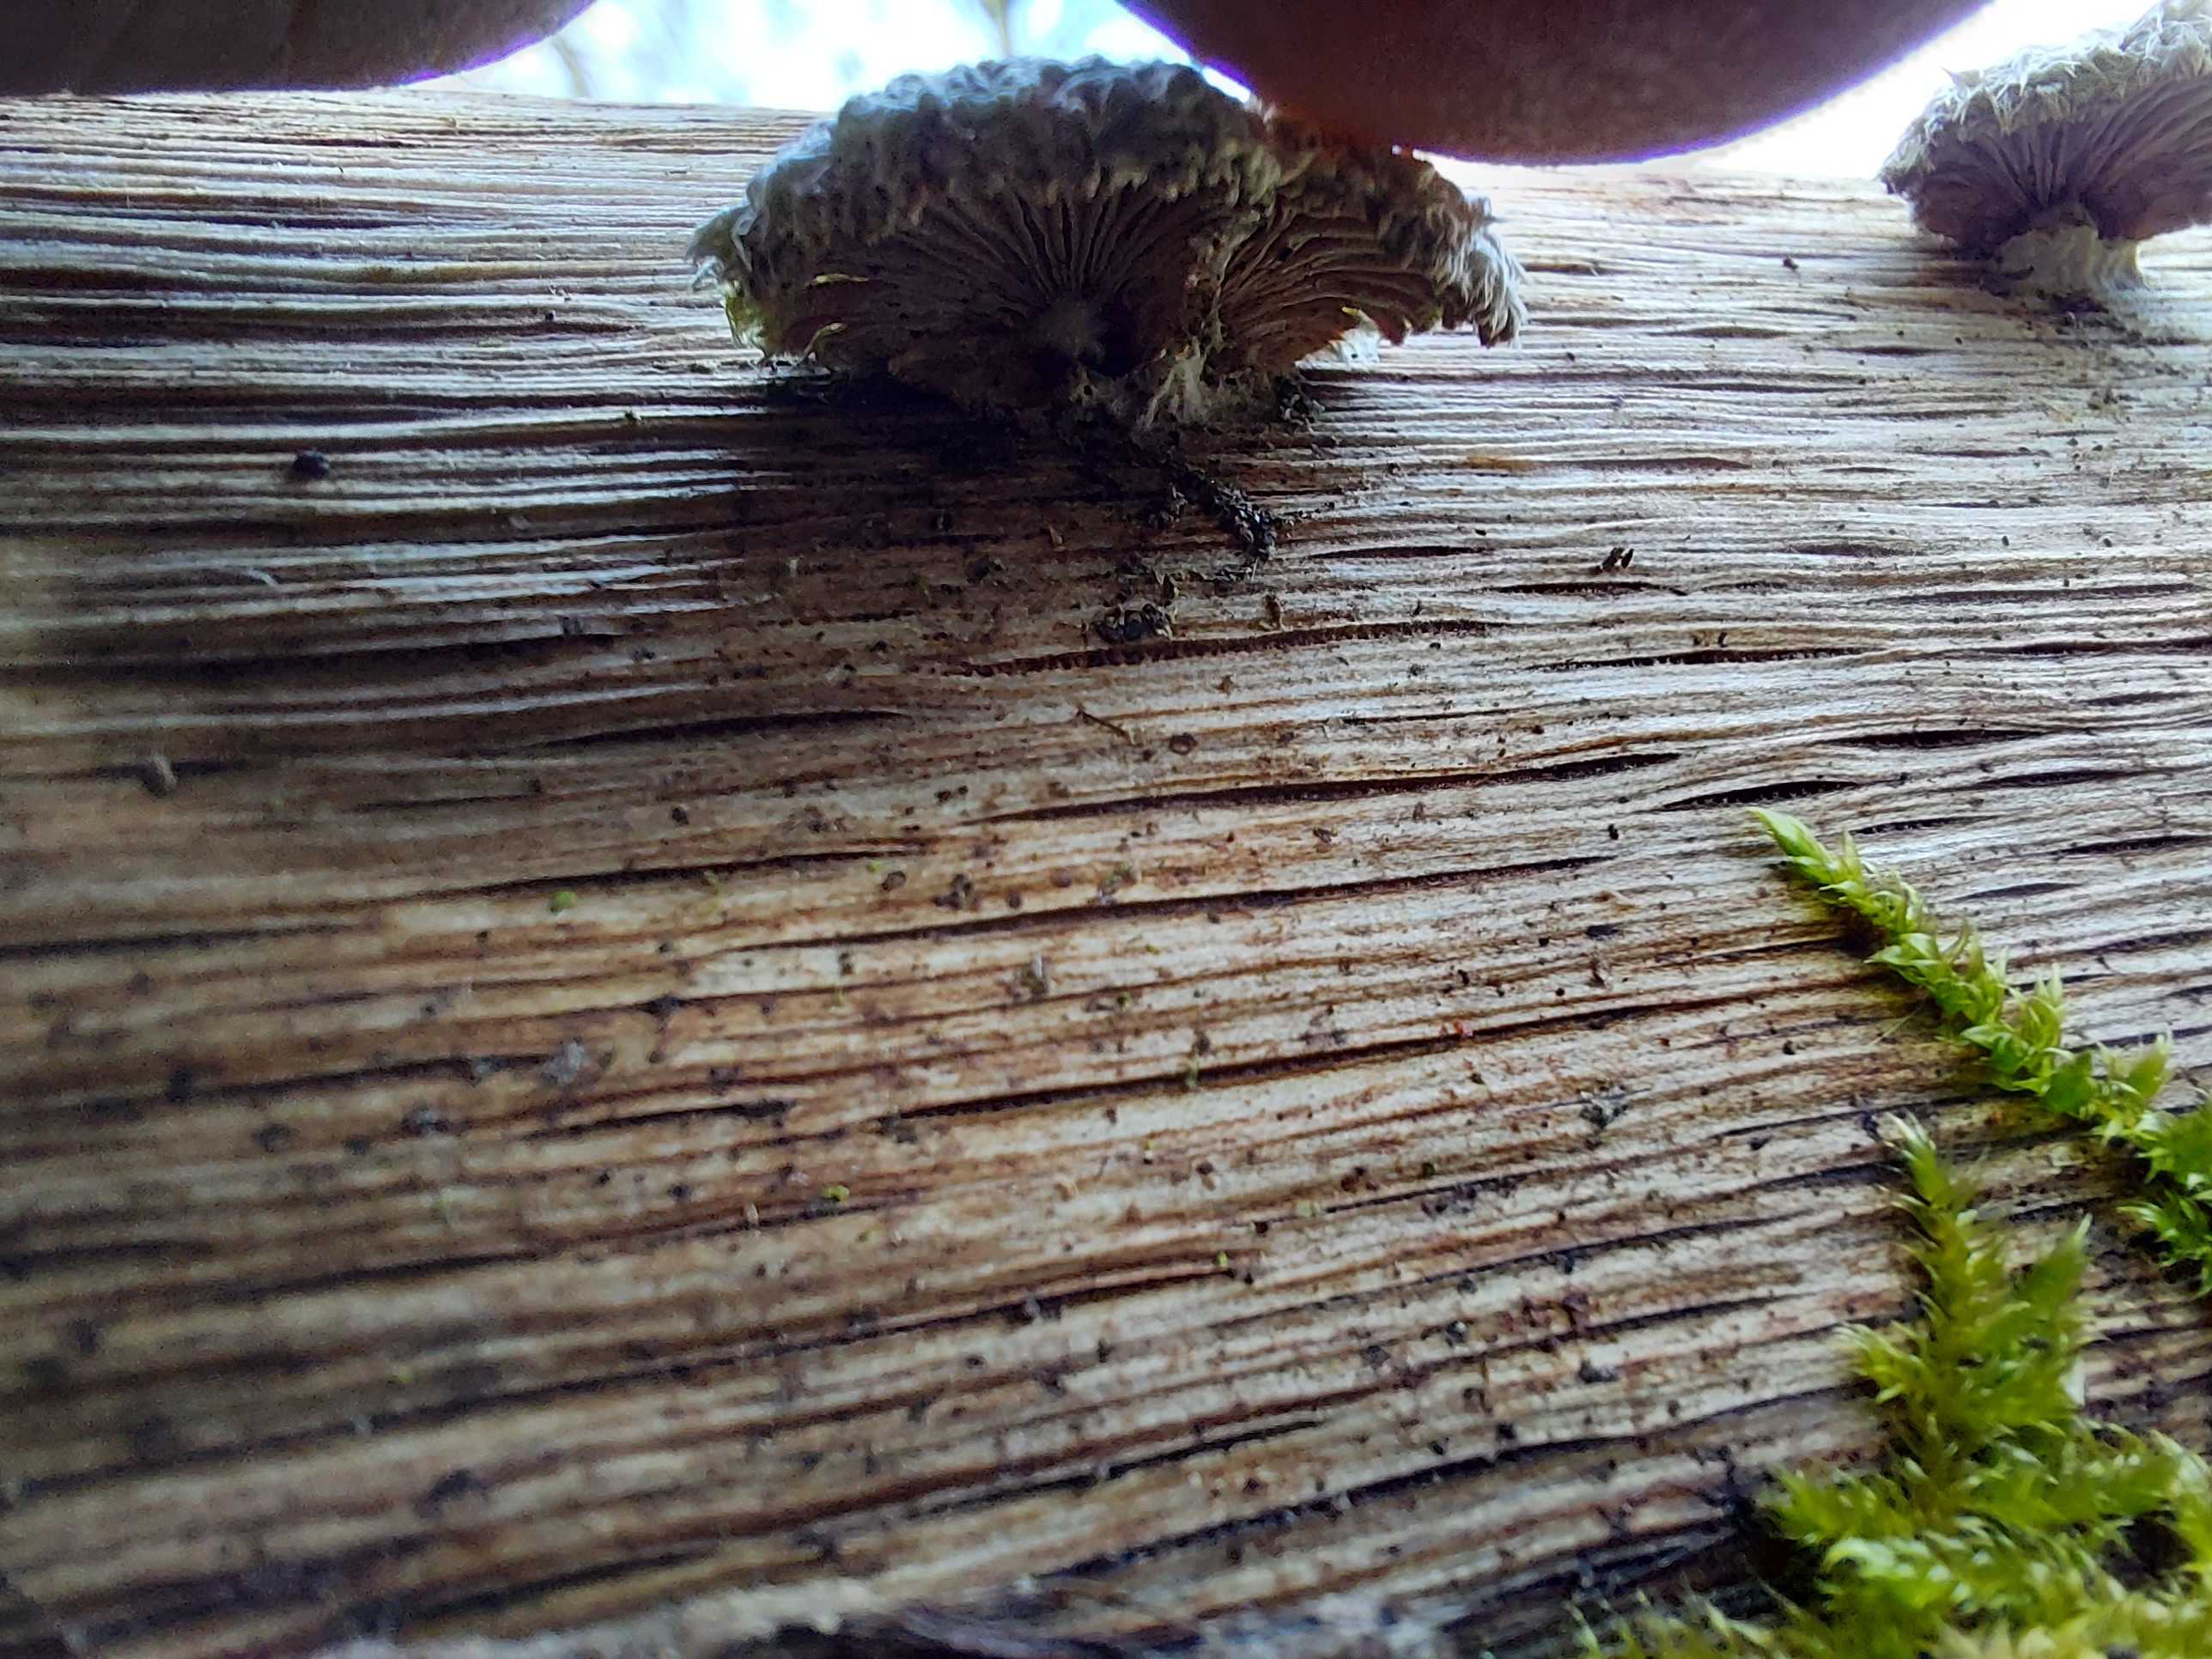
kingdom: Fungi
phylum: Basidiomycota
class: Agaricomycetes
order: Agaricales
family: Schizophyllaceae
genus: Schizophyllum
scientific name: Schizophyllum commune
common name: kløvblad
